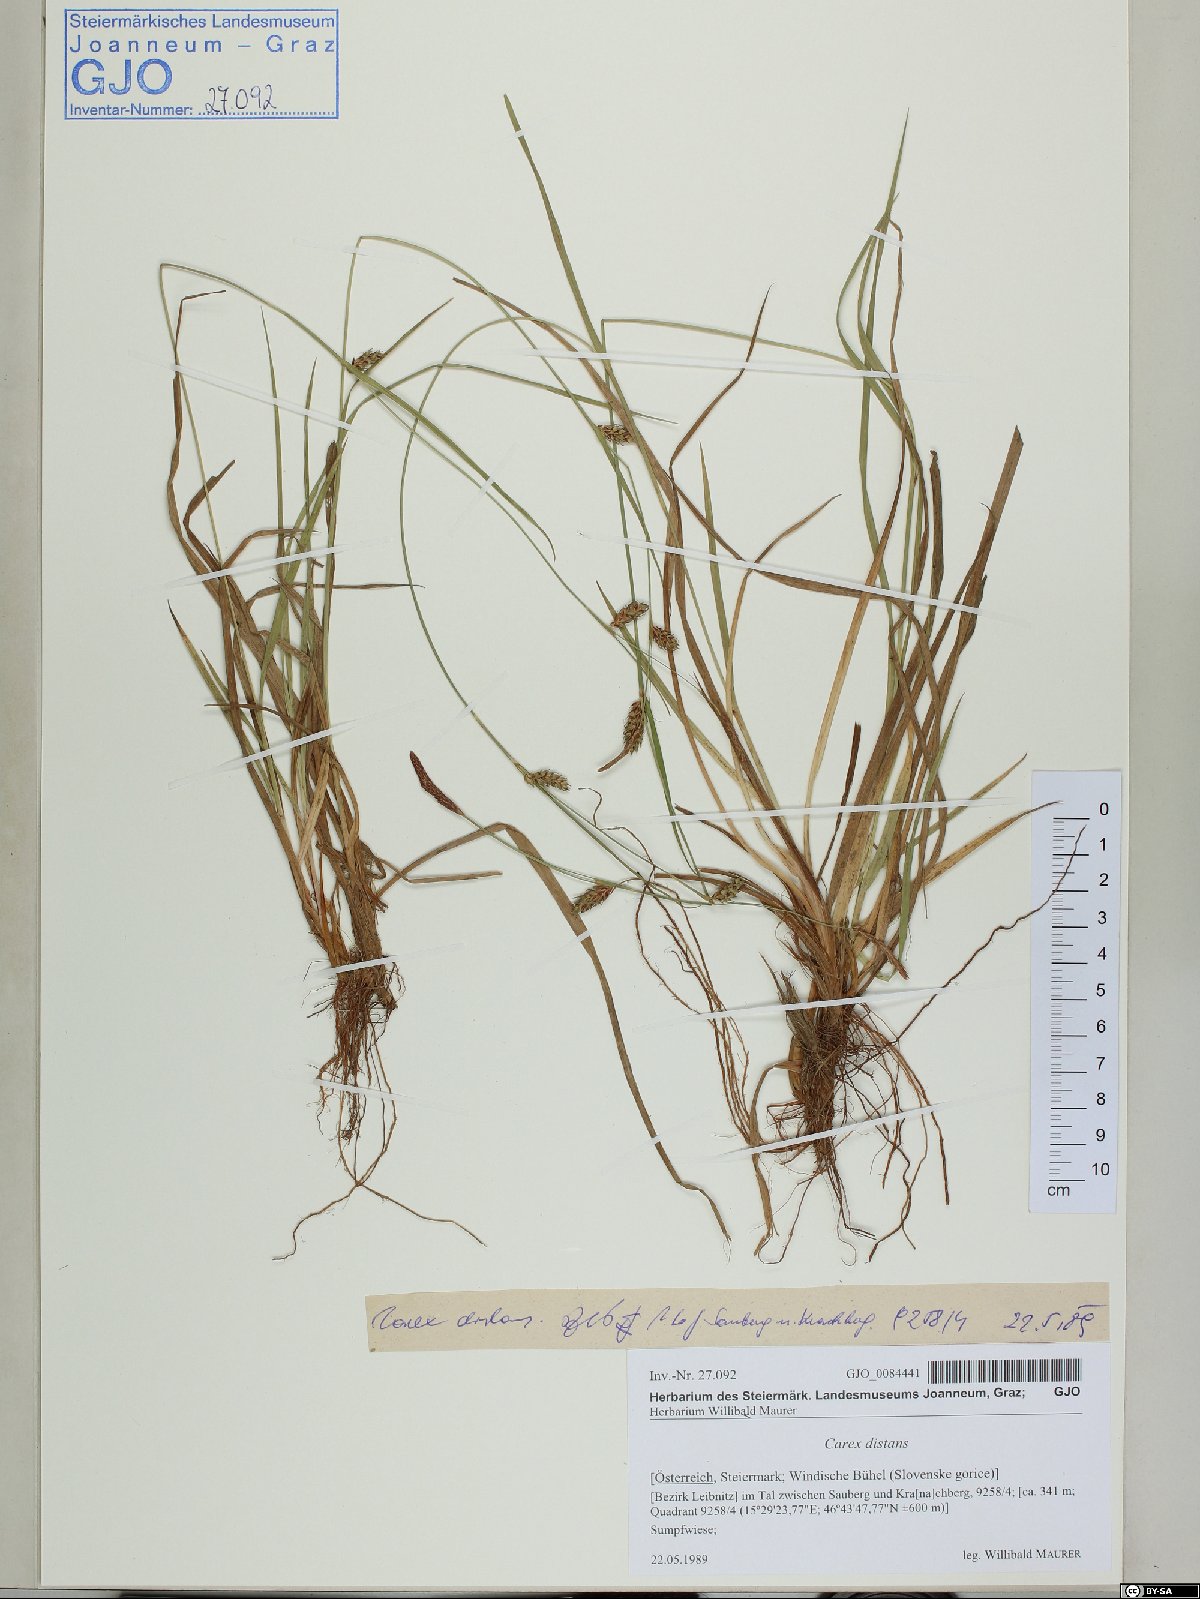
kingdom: Plantae
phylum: Tracheophyta
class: Liliopsida
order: Poales
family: Cyperaceae
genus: Carex
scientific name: Carex distans
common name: Distant sedge
